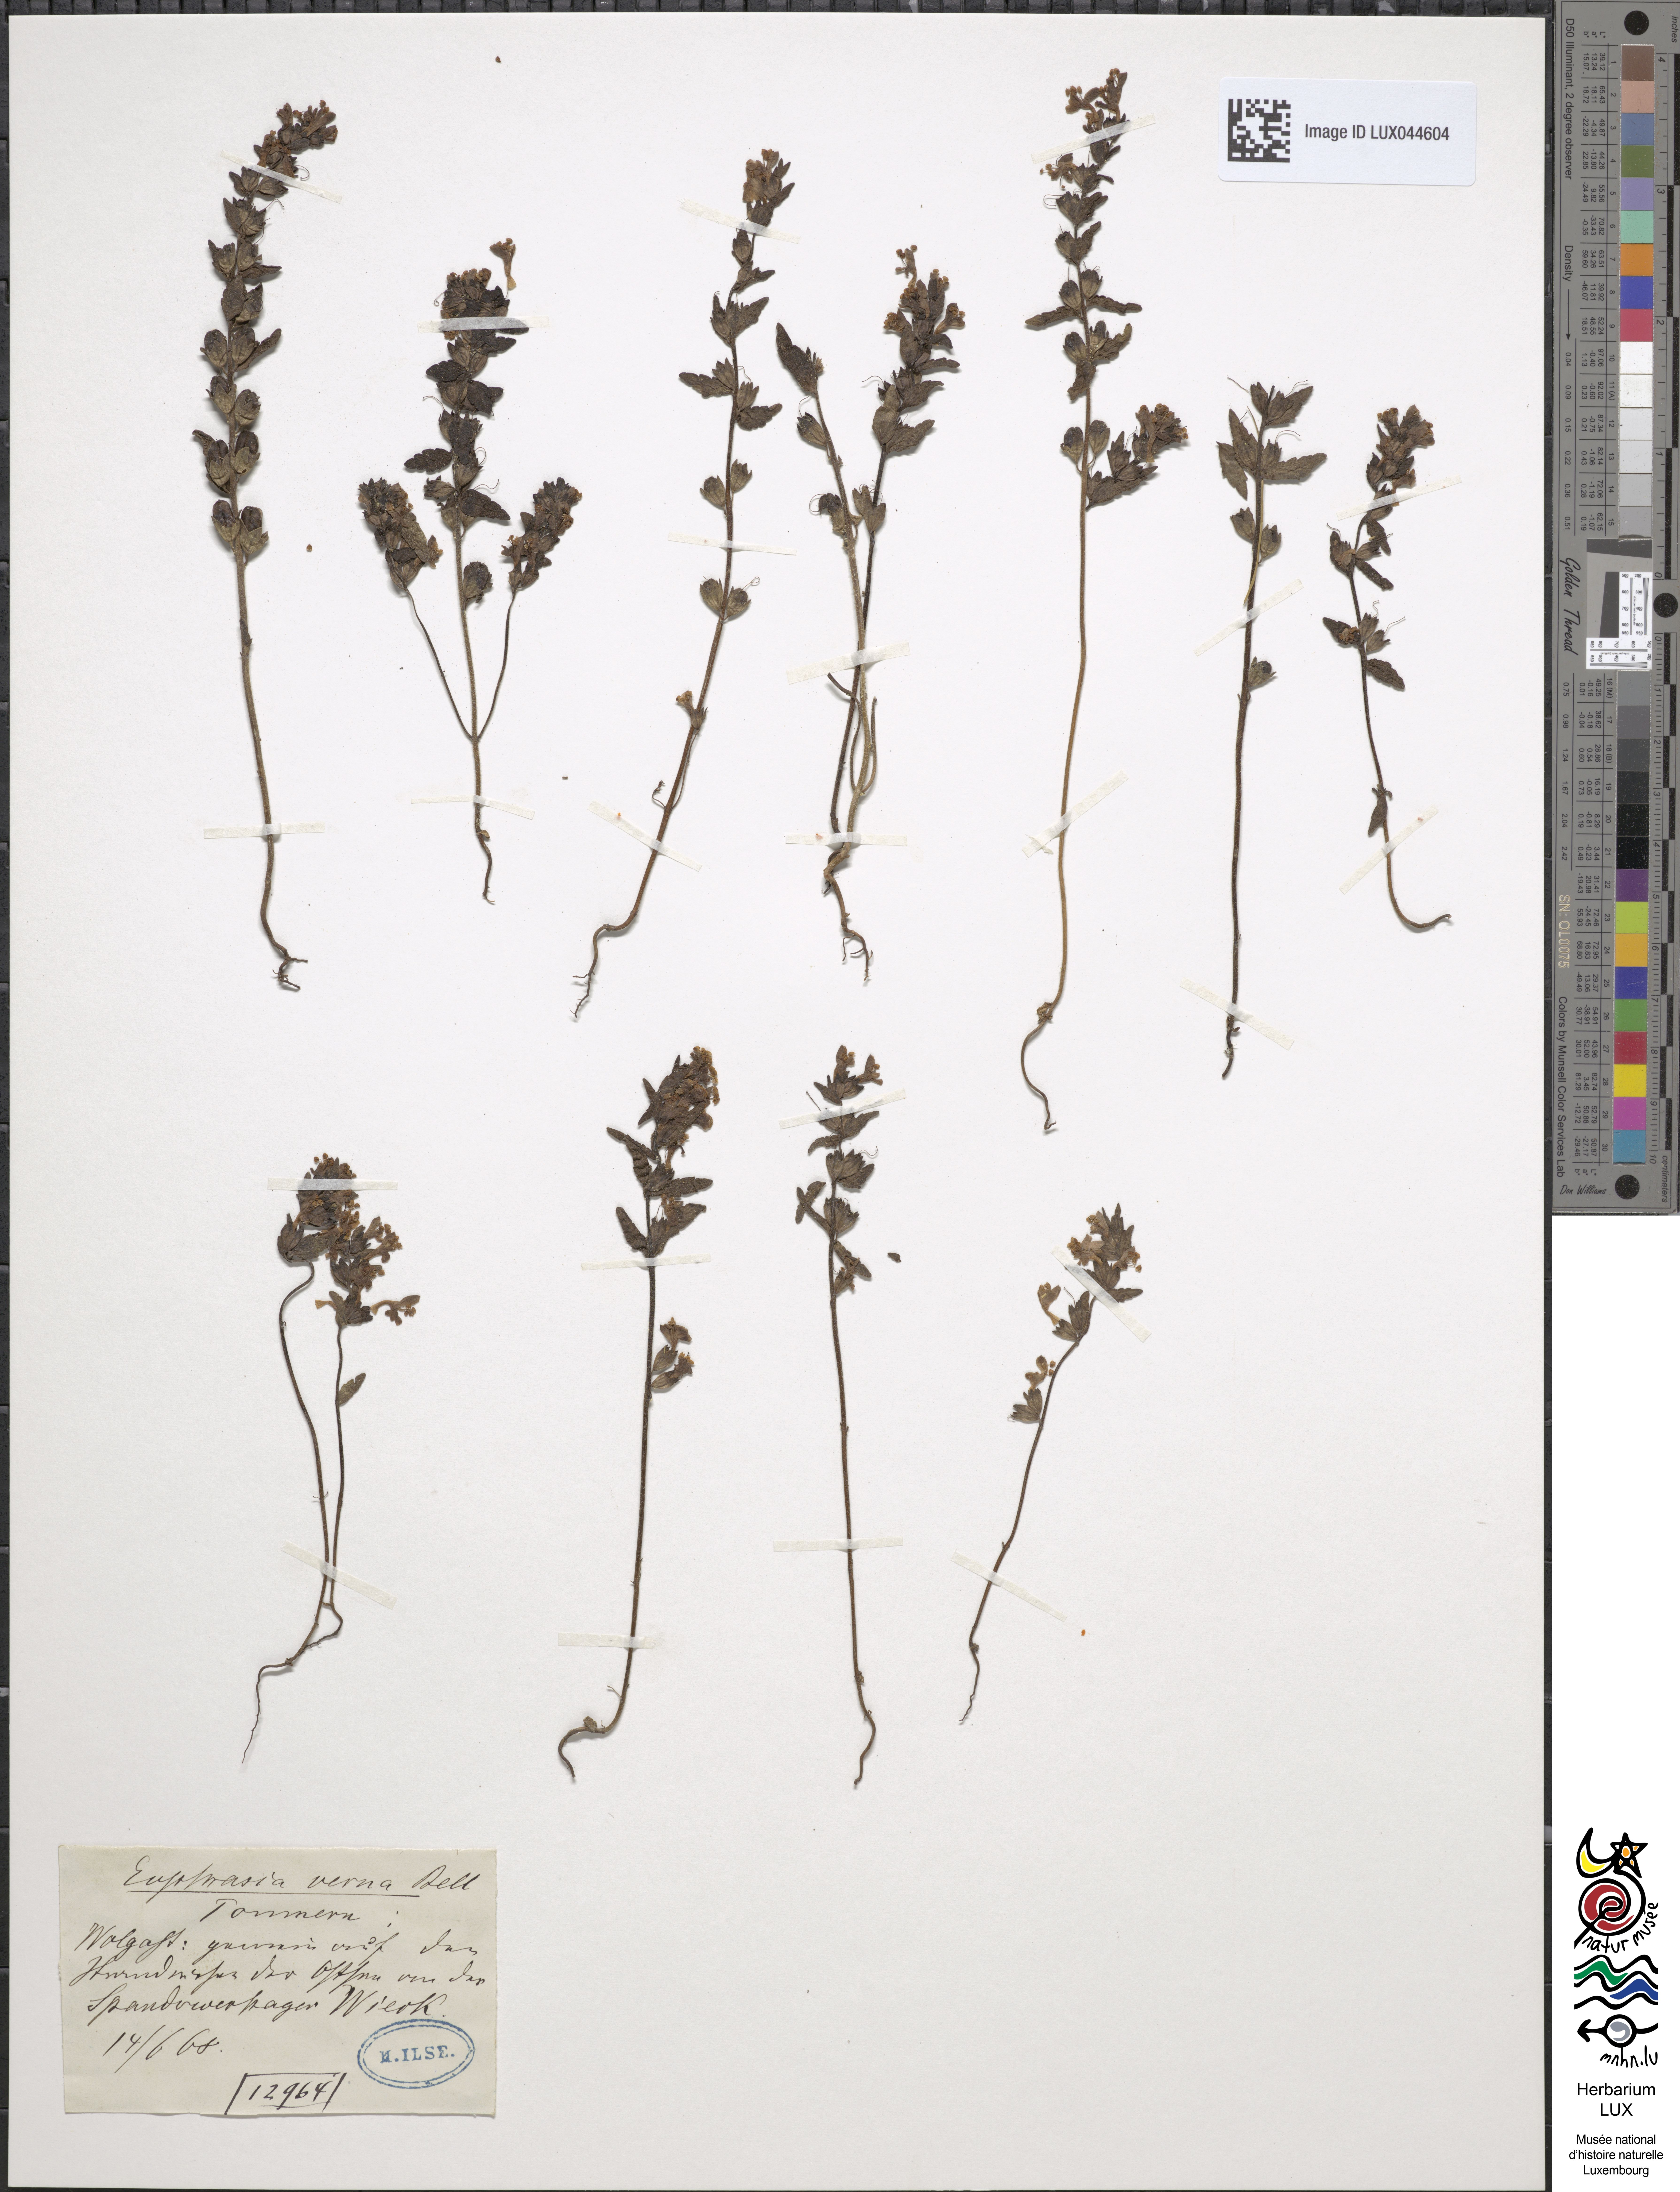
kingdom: Plantae
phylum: Tracheophyta
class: Magnoliopsida
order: Lamiales
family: Orobanchaceae
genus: Odontites
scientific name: Odontites vernus
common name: Red bartsia
